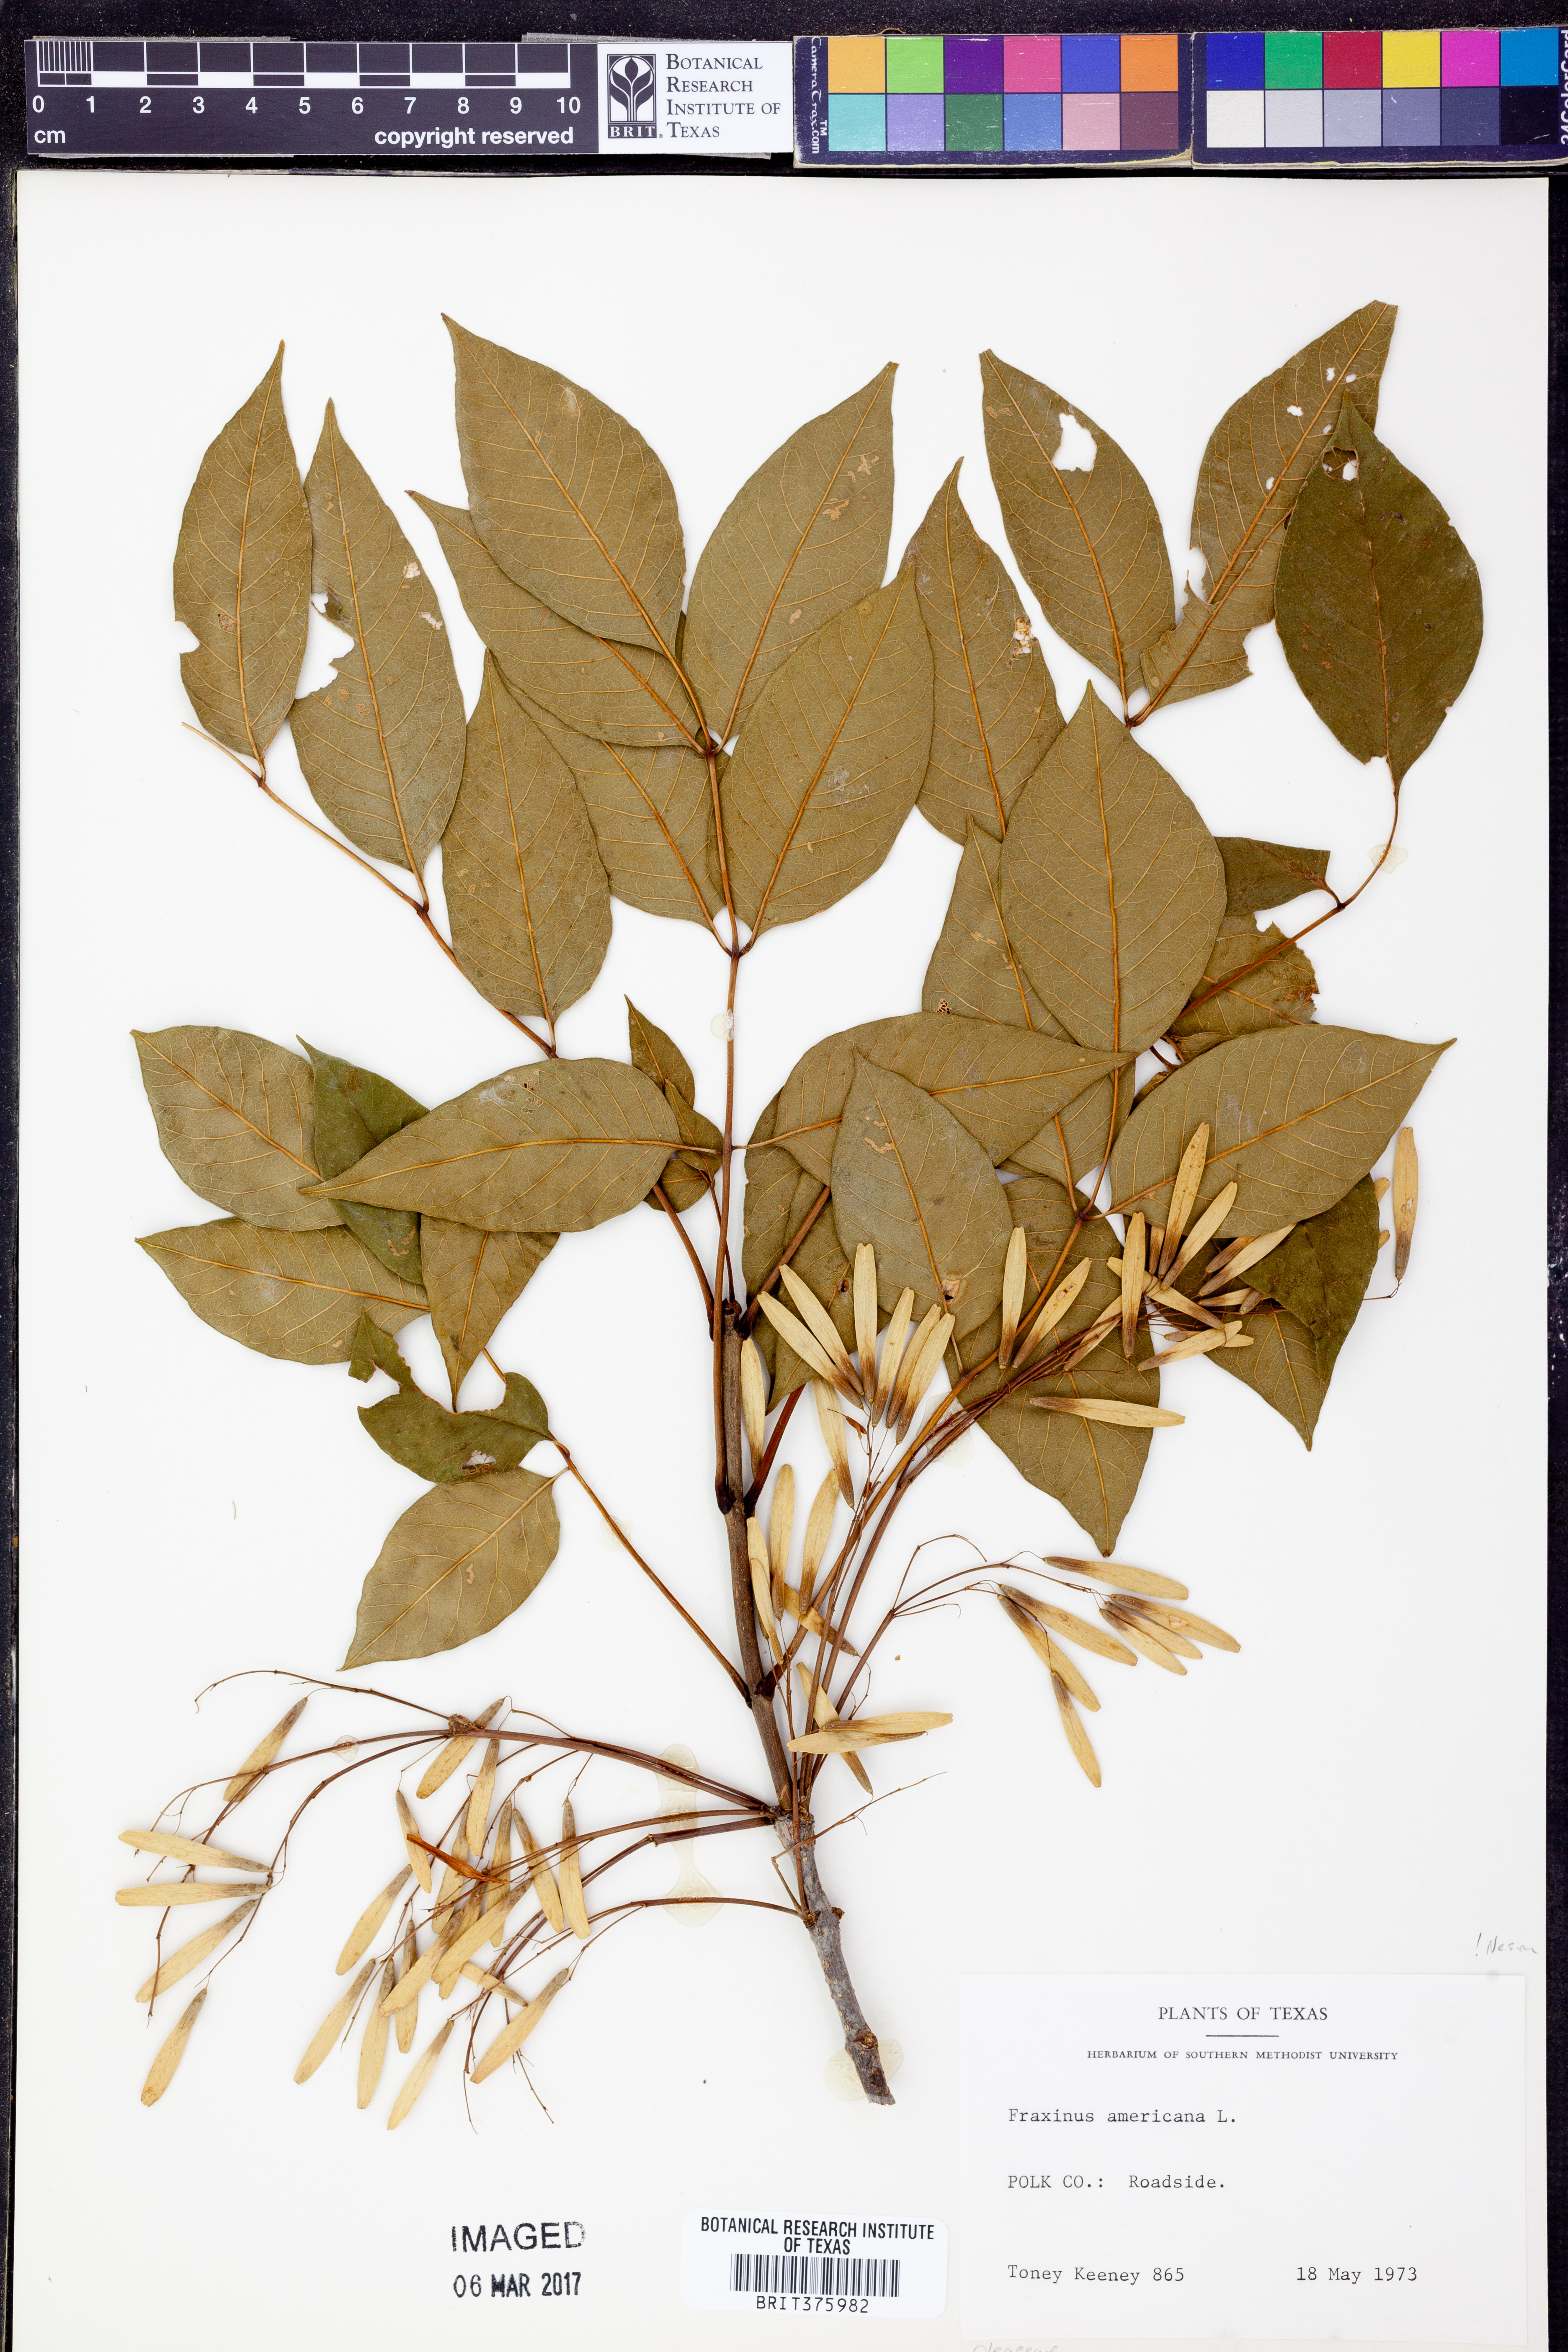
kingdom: Plantae
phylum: Tracheophyta
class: Magnoliopsida
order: Lamiales
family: Oleaceae
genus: Fraxinus
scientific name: Fraxinus americana
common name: White ash
